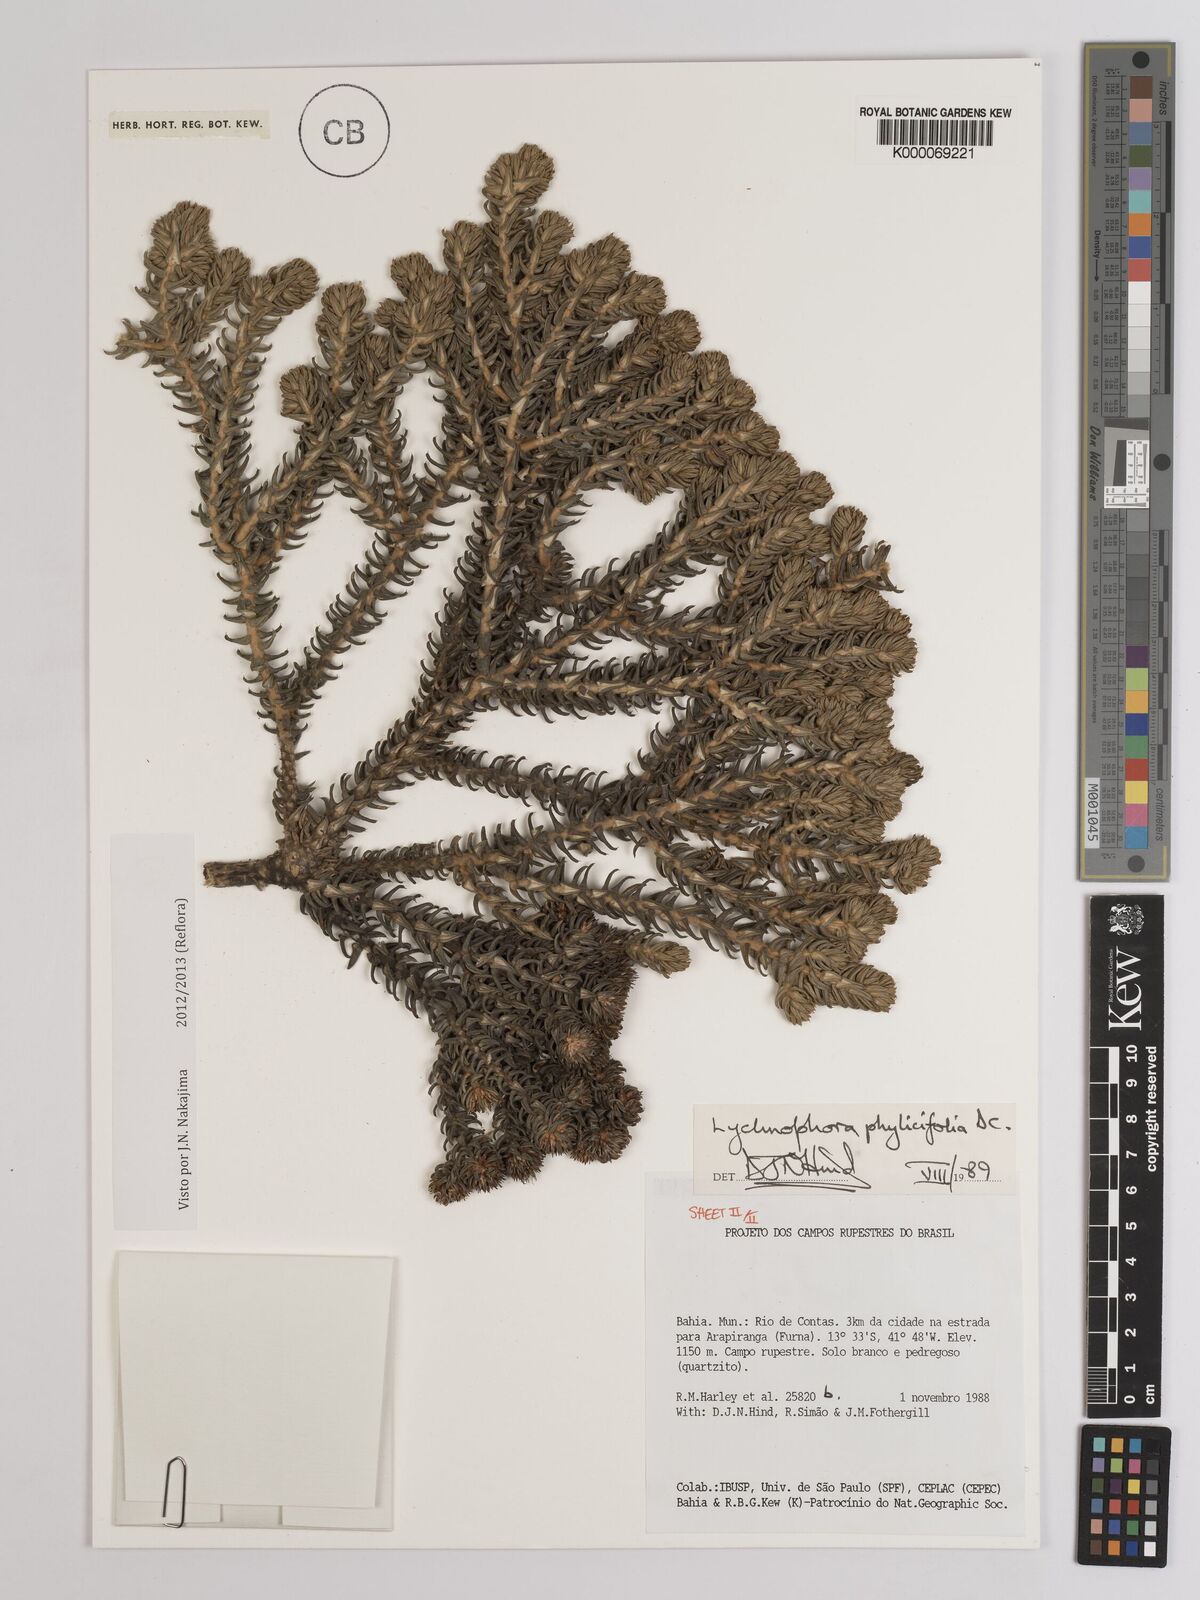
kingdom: Plantae
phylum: Tracheophyta
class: Magnoliopsida
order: Asterales
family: Asteraceae
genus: Lychnophora
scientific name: Lychnophora phylicifolia
